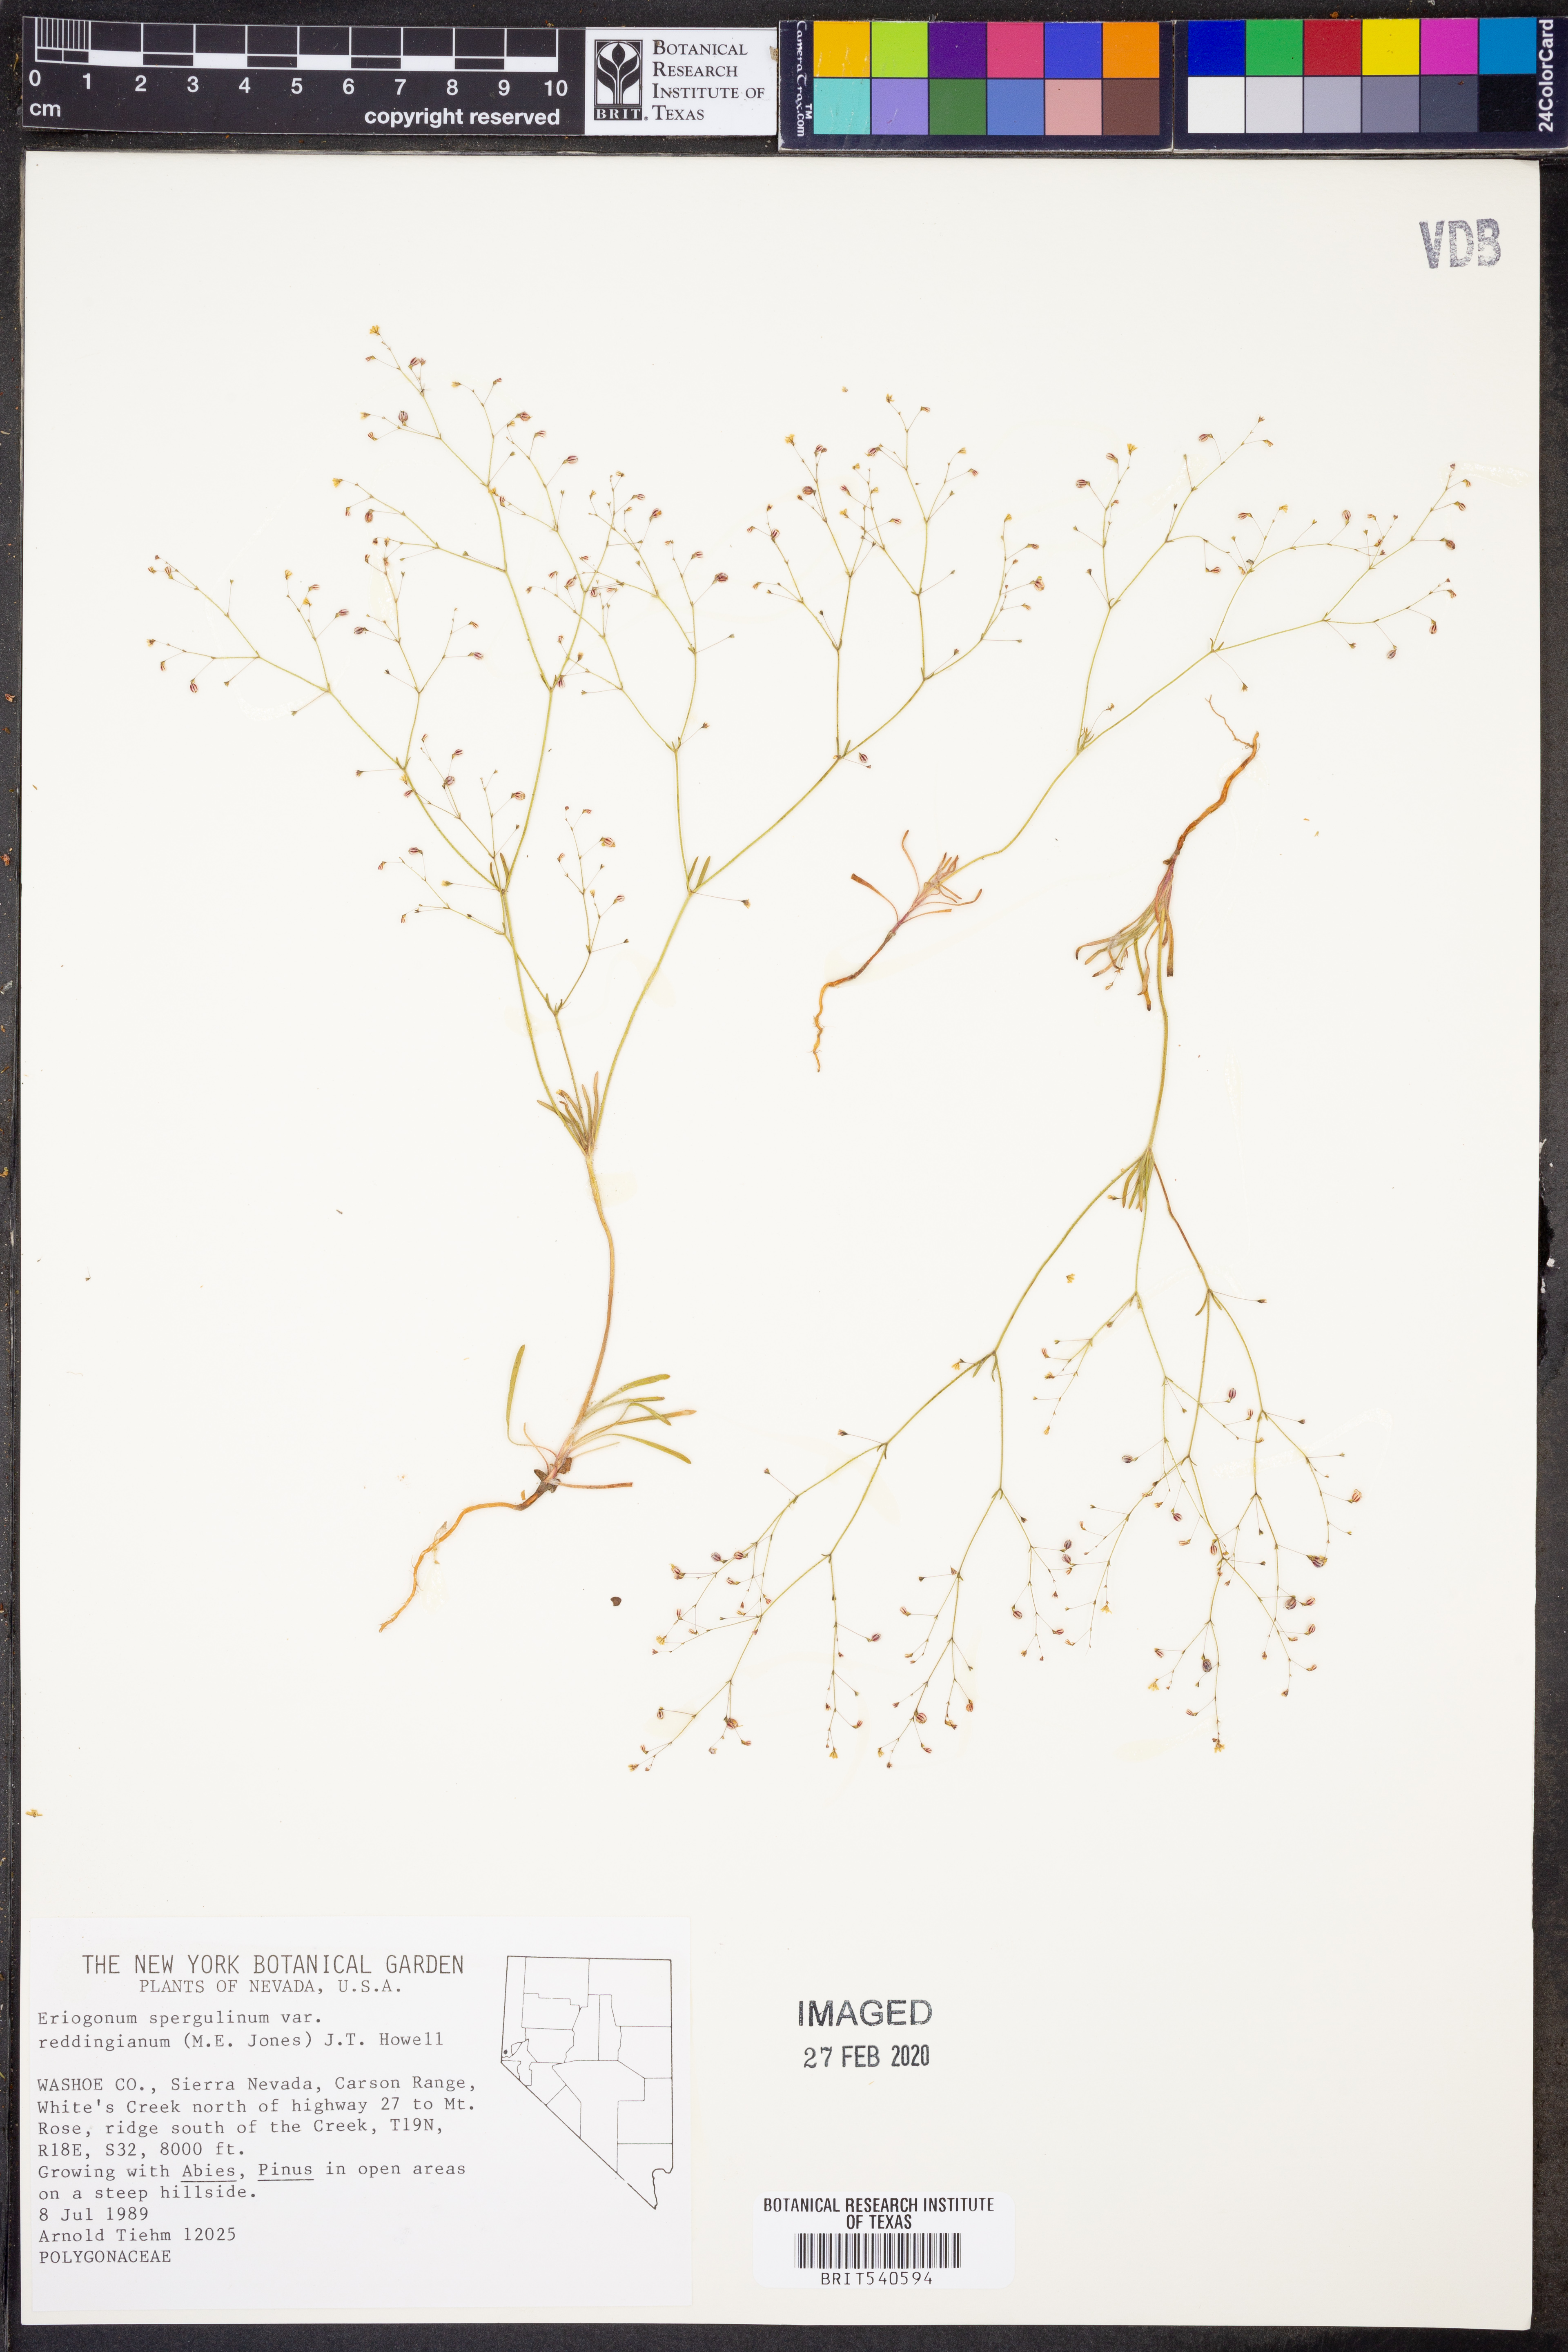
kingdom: Plantae
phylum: Tracheophyta
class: Magnoliopsida
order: Caryophyllales
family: Polygonaceae
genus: Eriogonum
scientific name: Eriogonum spergulinum
